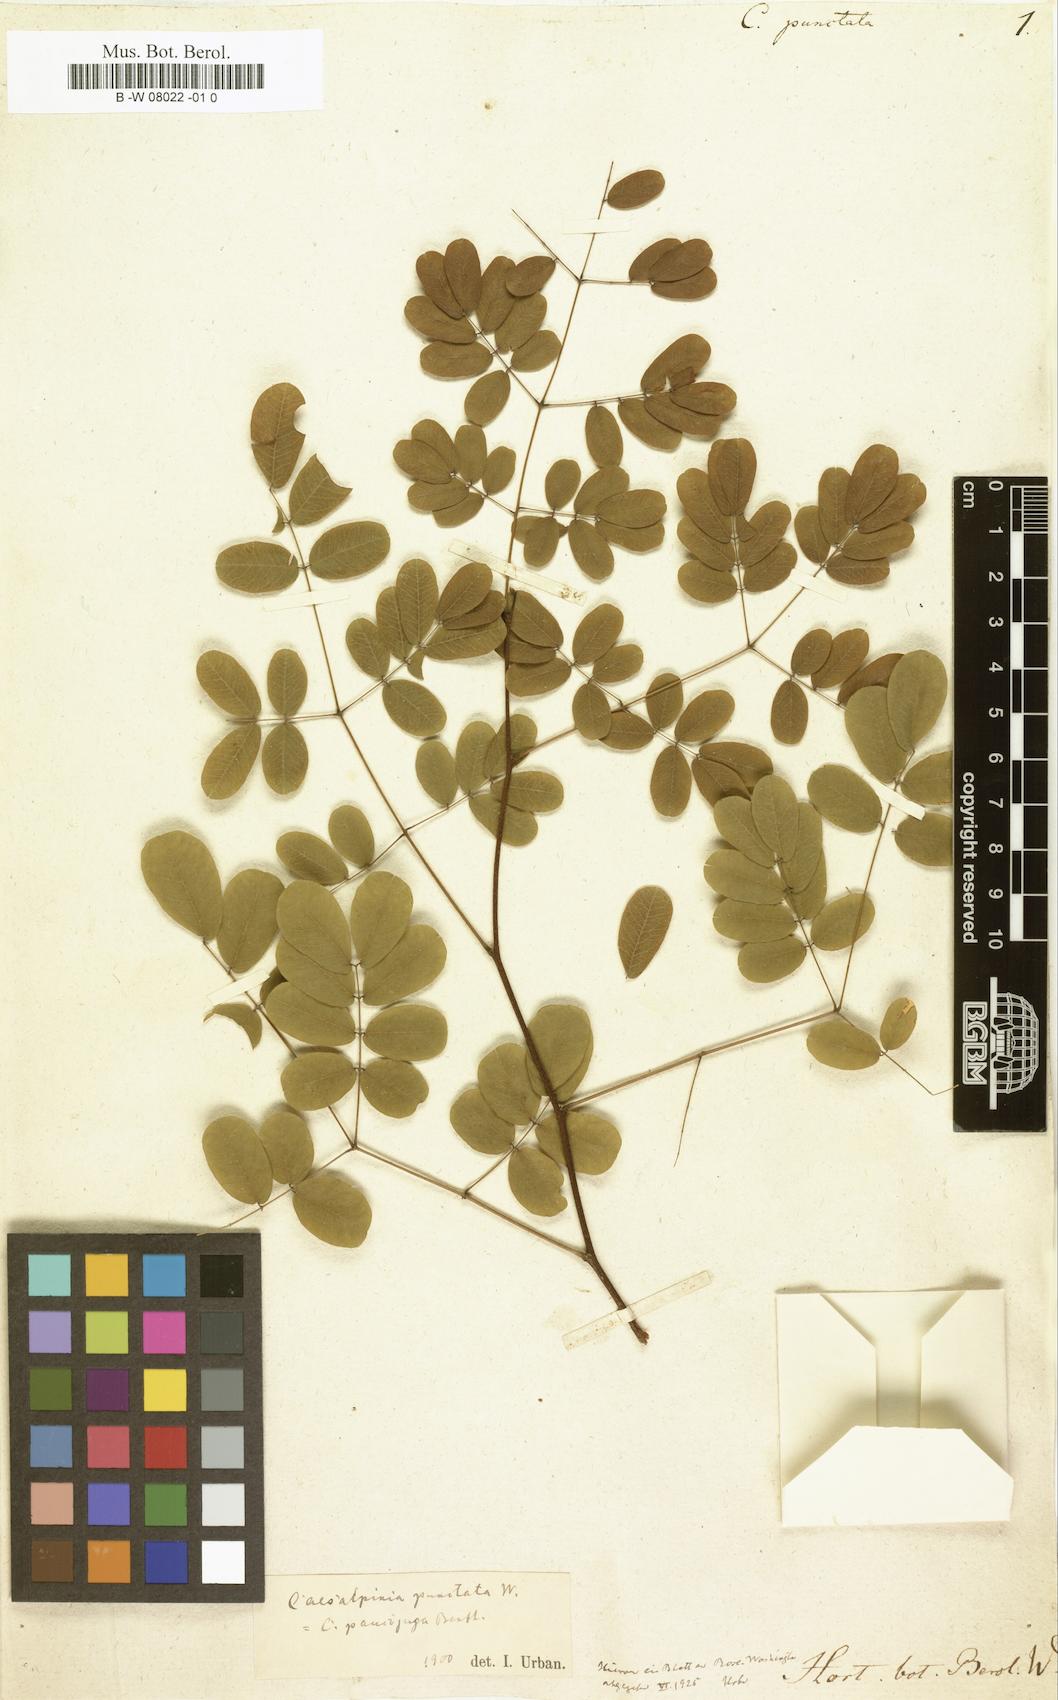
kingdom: Plantae
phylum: Tracheophyta
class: Magnoliopsida
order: Fabales
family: Fabaceae
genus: Libidibia
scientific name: Libidibia punctata
